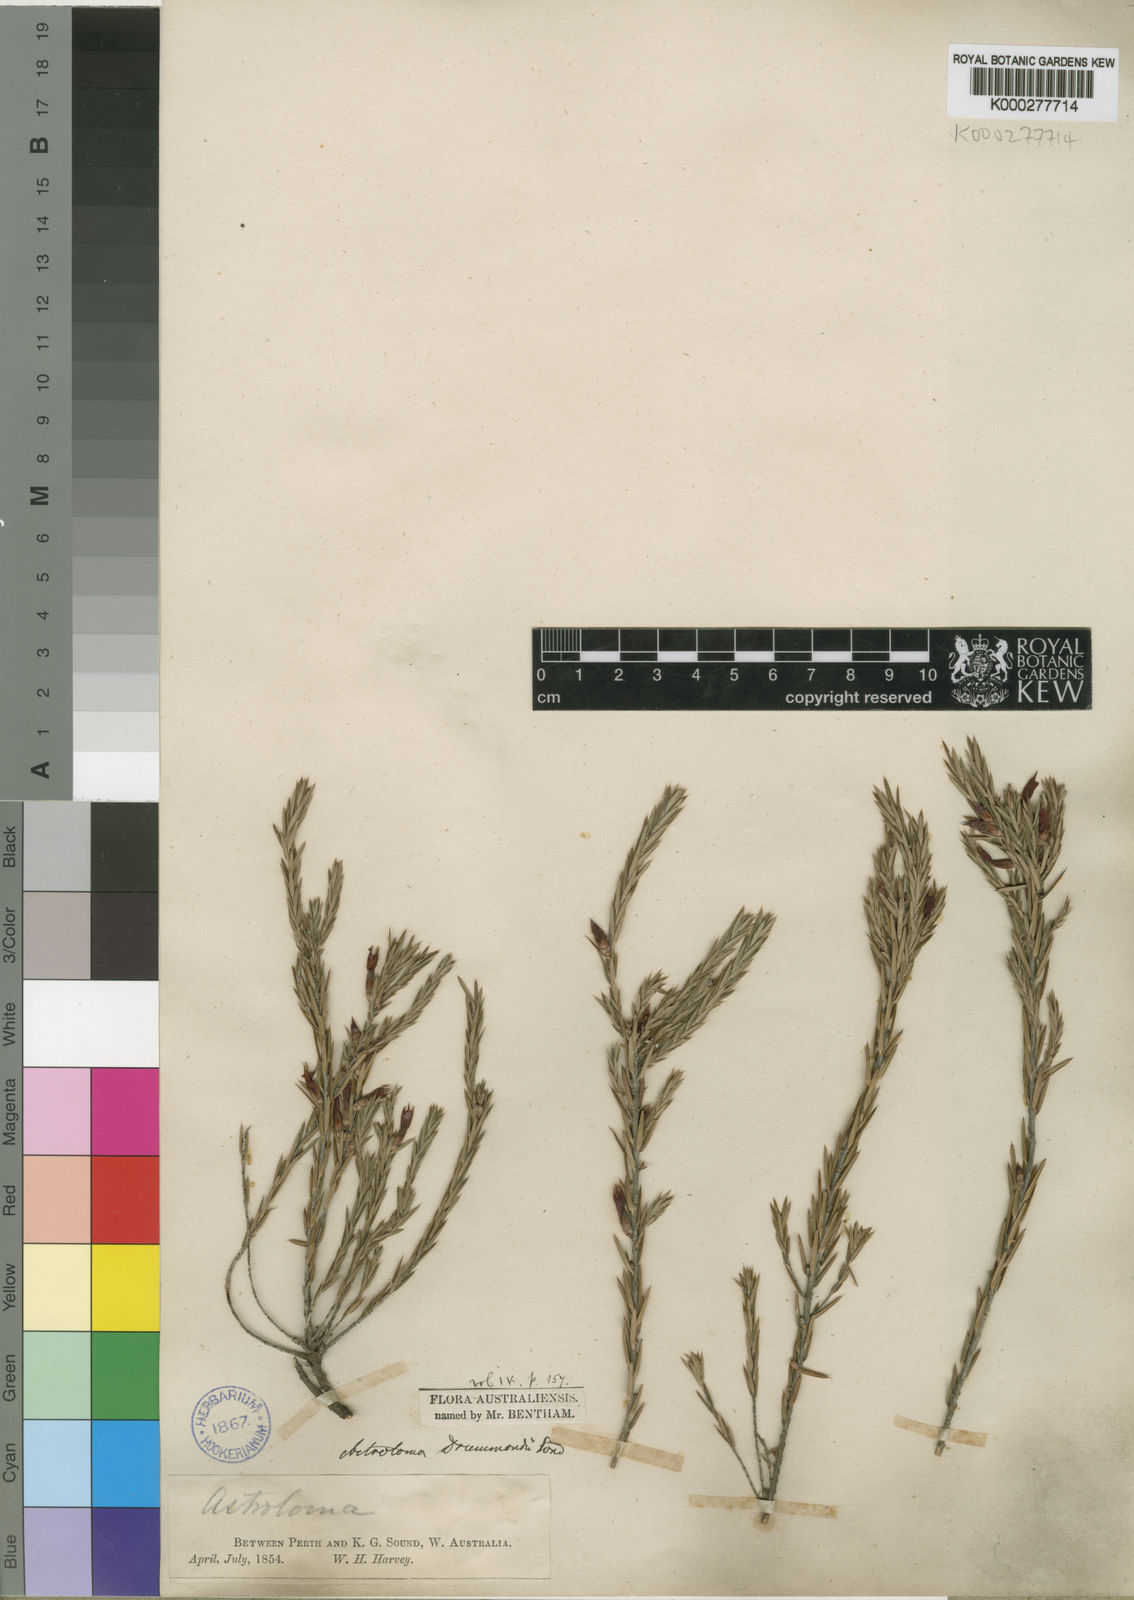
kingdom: Plantae
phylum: Tracheophyta
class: Magnoliopsida
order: Ericales
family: Ericaceae
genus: Styphelia
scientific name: Styphelia epacridis
